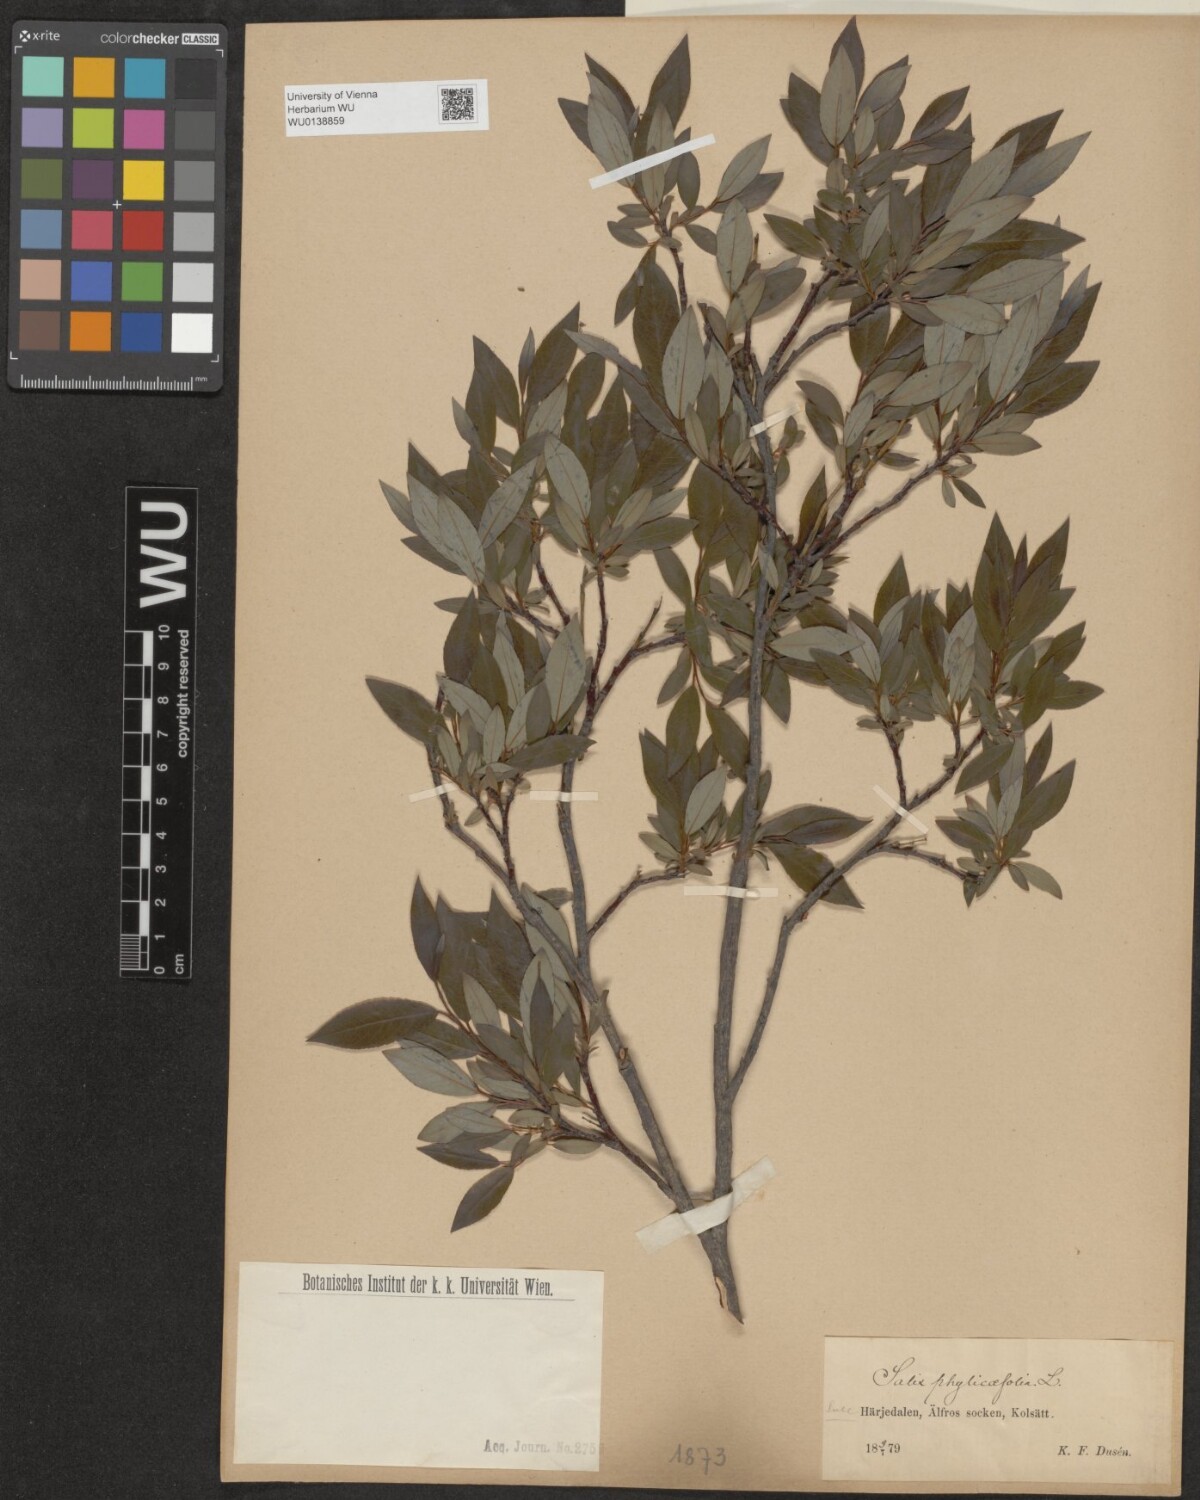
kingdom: Plantae
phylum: Tracheophyta
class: Magnoliopsida
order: Malpighiales
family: Salicaceae
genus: Salix
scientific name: Salix phylicifolia
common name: Tea-leaved willow
